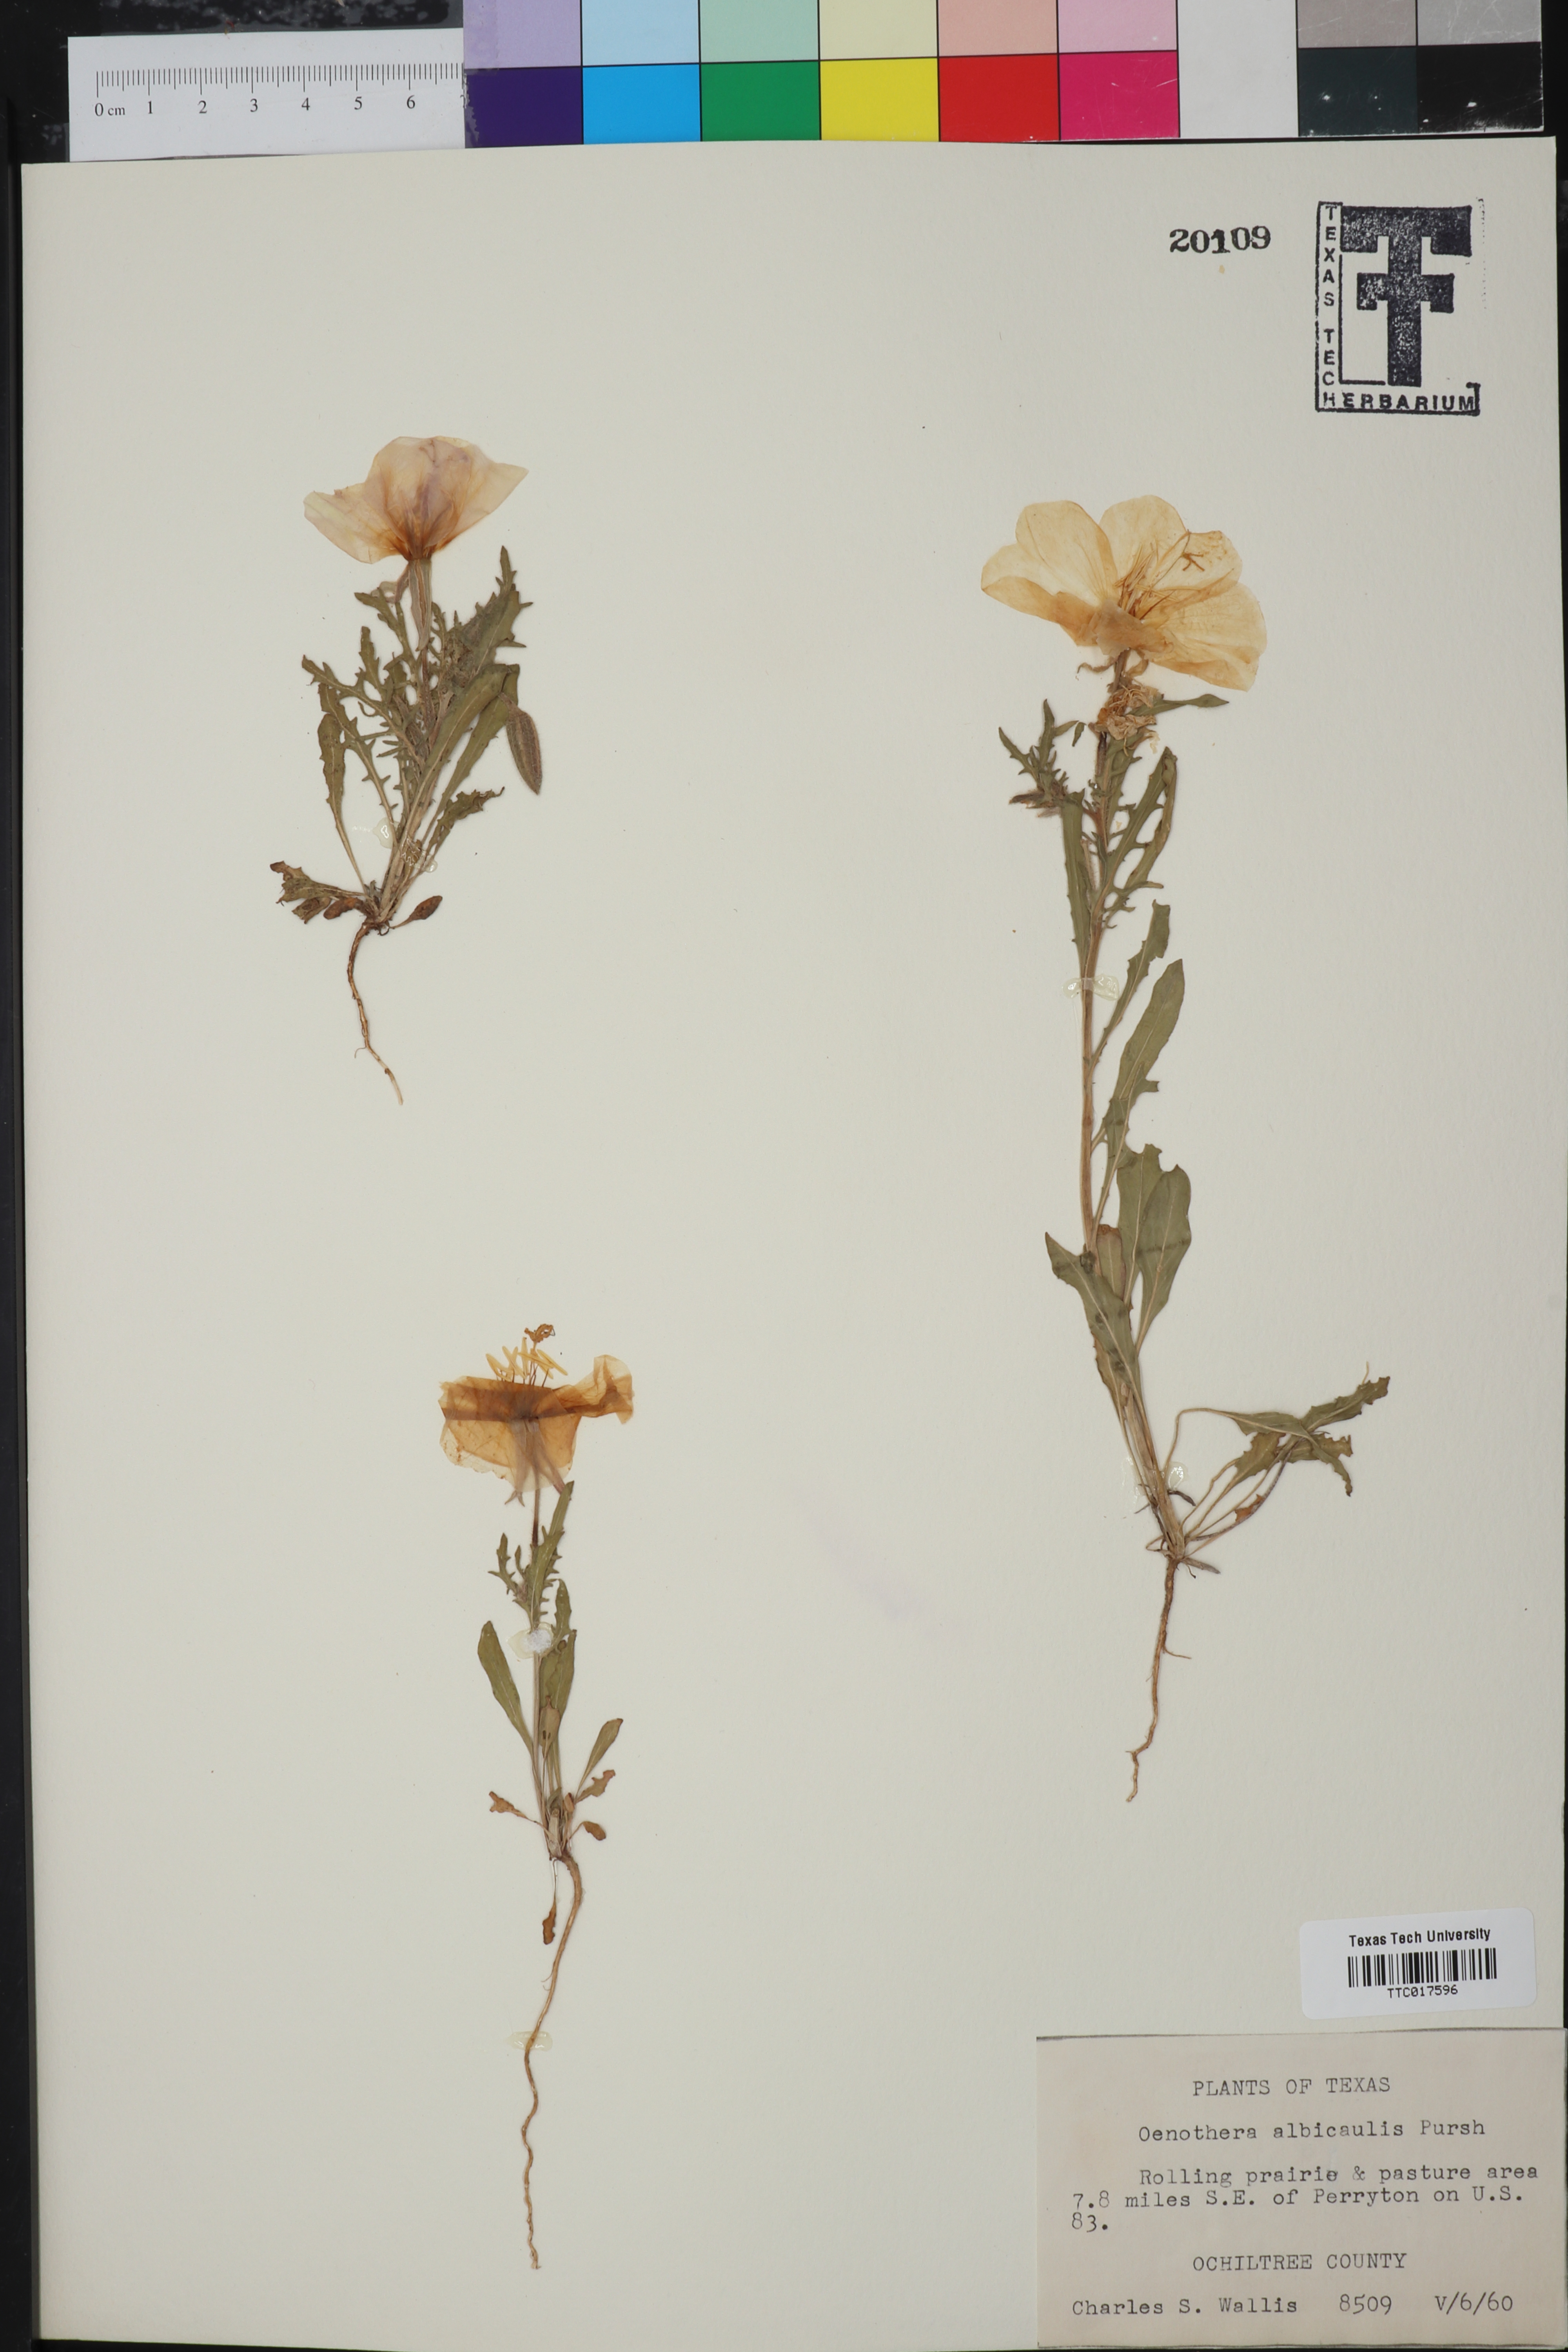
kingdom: Plantae
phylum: Tracheophyta
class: Magnoliopsida
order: Myrtales
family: Onagraceae
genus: Oenothera
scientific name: Oenothera albicaulis
